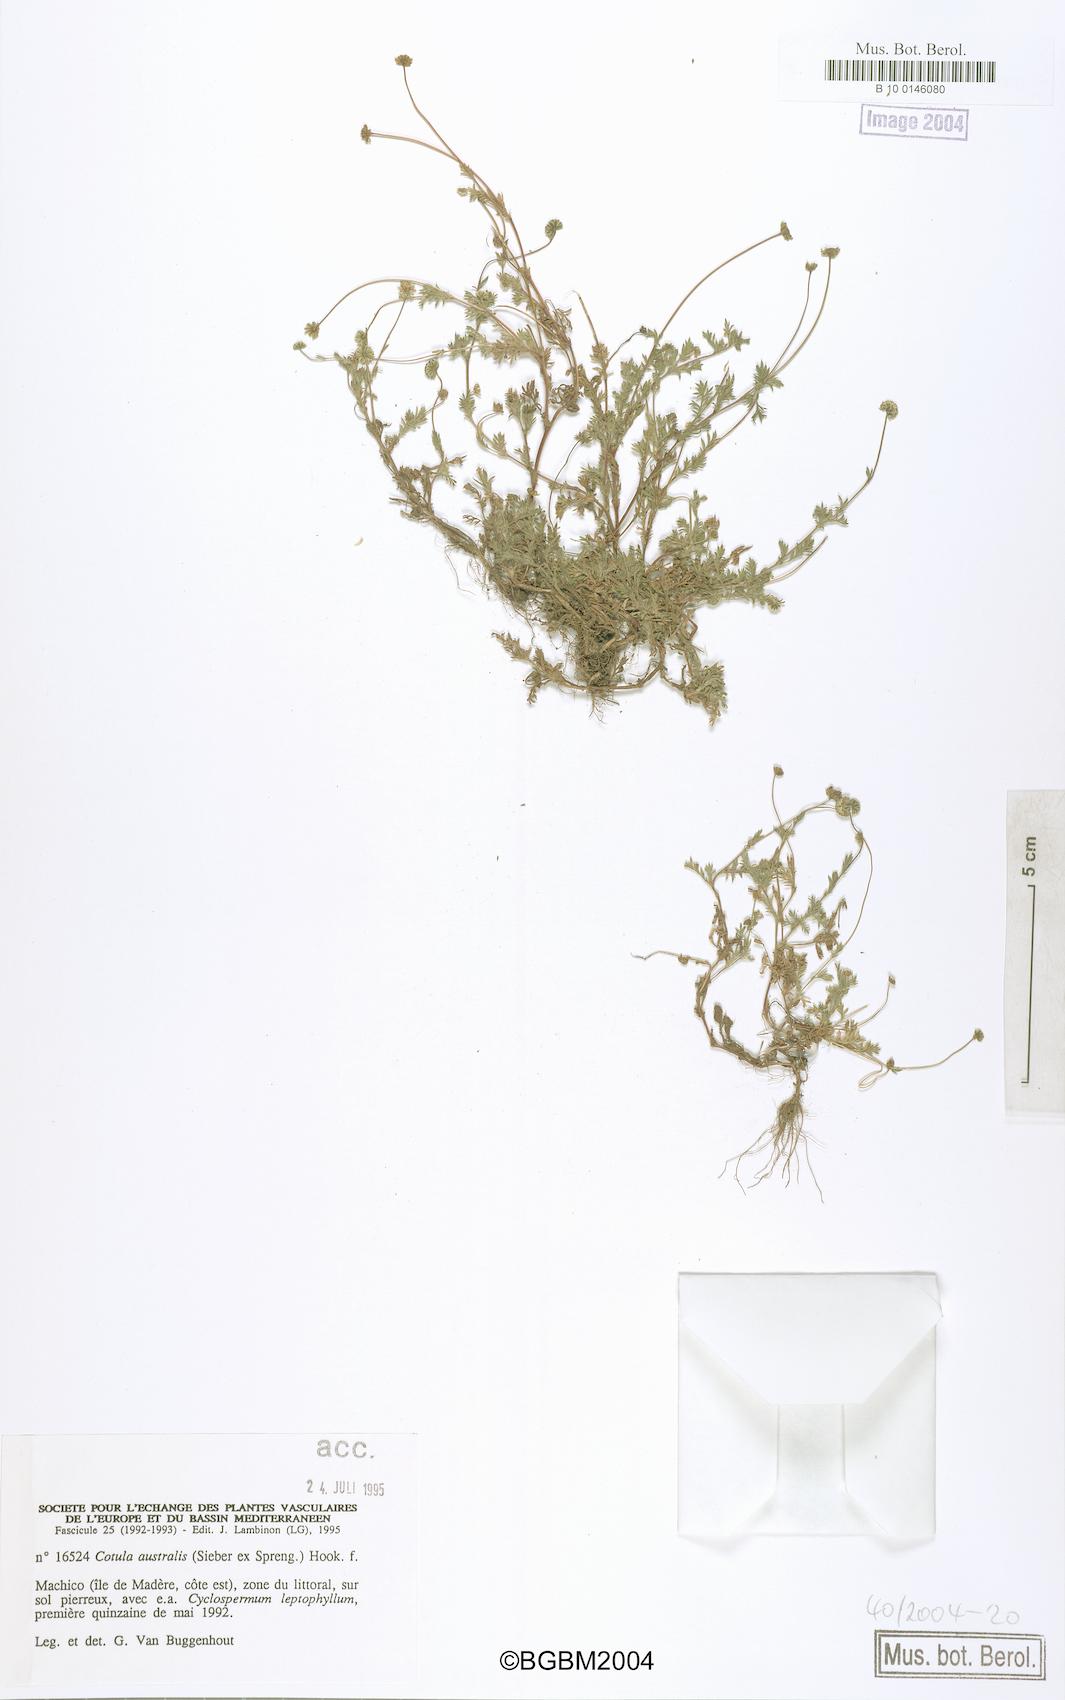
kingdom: Plantae
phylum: Tracheophyta
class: Magnoliopsida
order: Asterales
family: Asteraceae
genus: Cotula
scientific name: Cotula australis
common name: Australian waterbuttons
